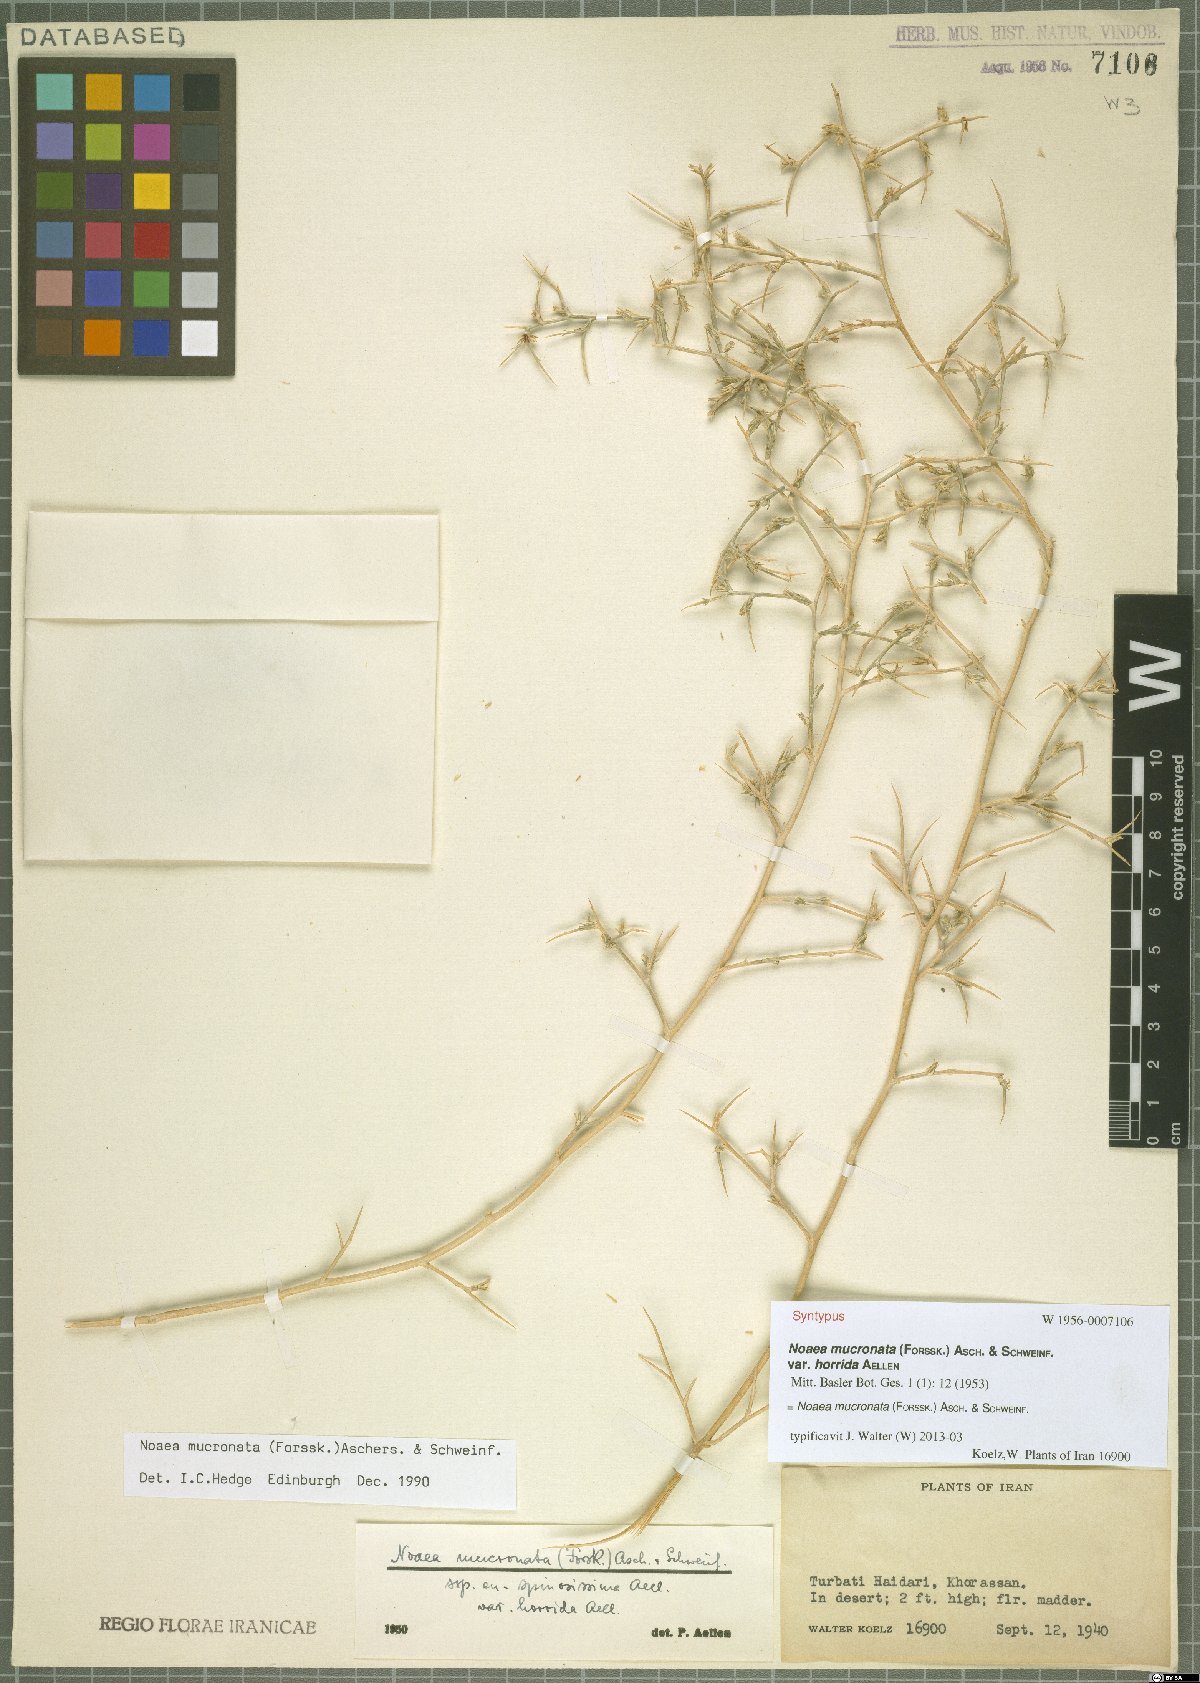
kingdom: Plantae
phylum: Tracheophyta
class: Magnoliopsida
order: Caryophyllales
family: Amaranthaceae
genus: Noaea
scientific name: Noaea mucronata
